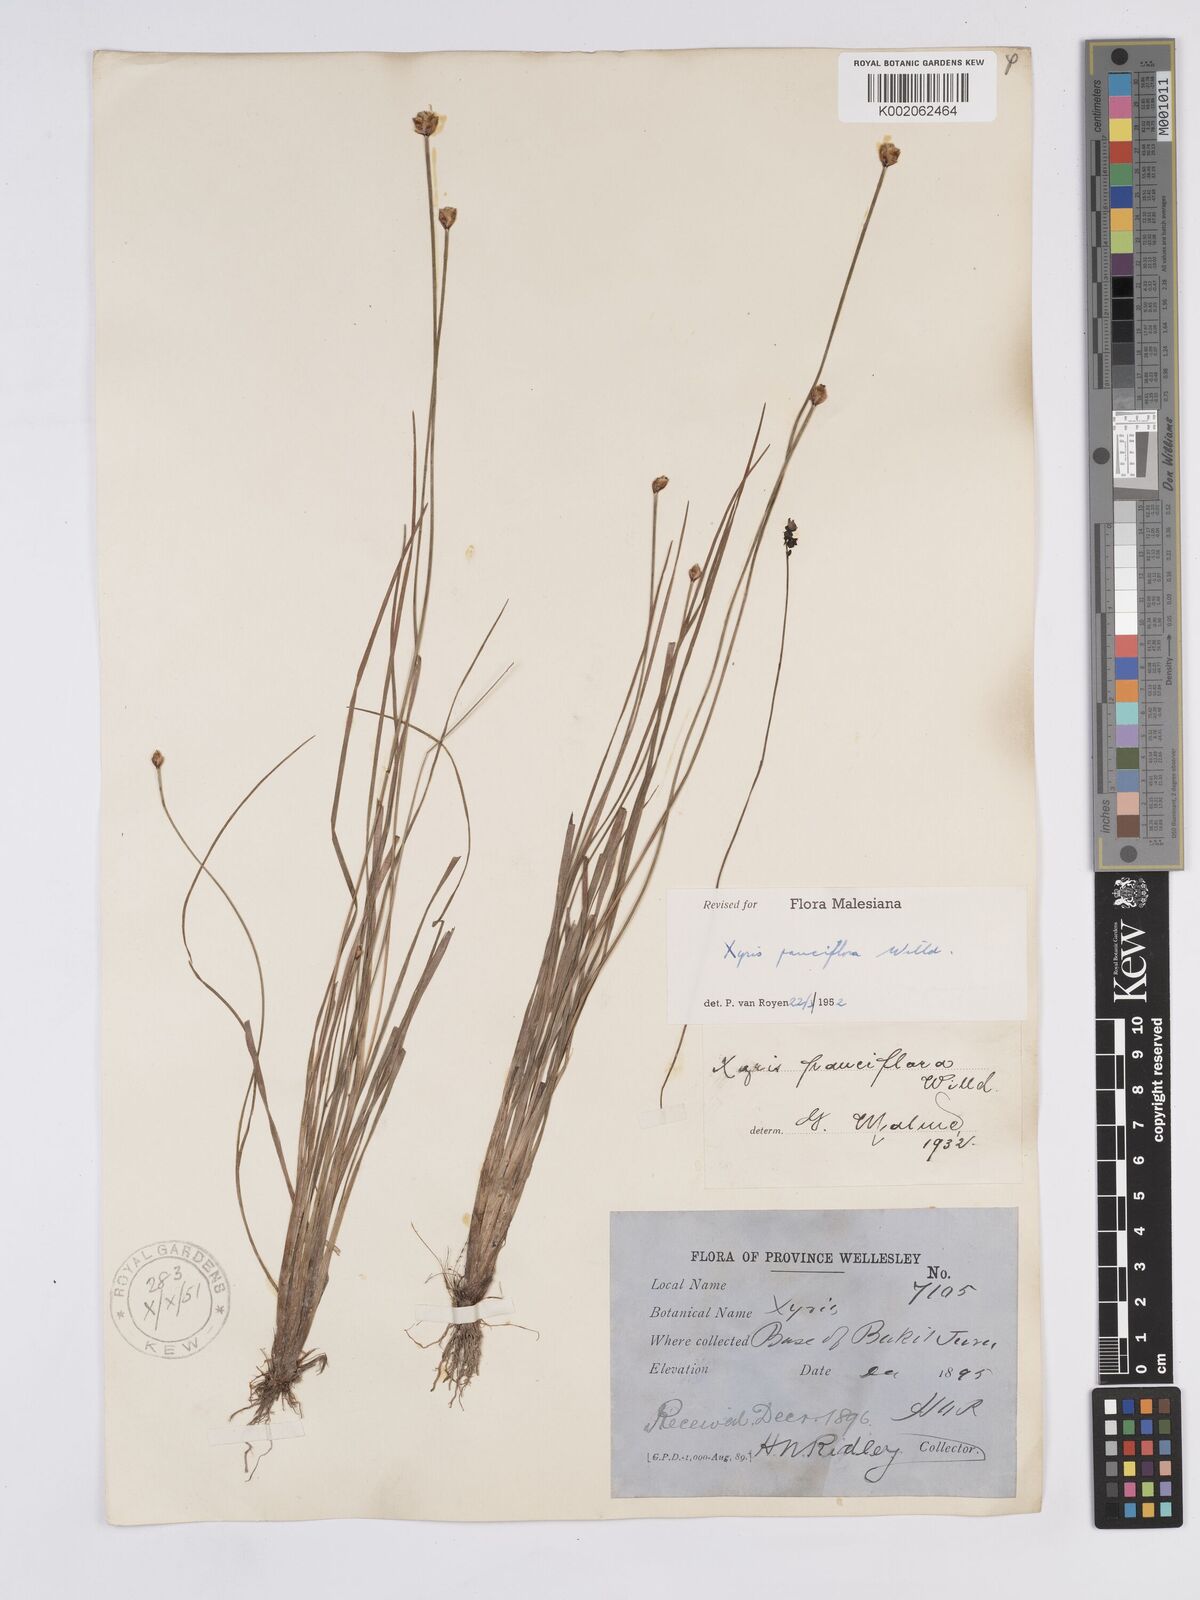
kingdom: Plantae
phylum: Tracheophyta
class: Liliopsida
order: Poales
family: Xyridaceae
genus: Xyris
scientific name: Xyris pauciflora
